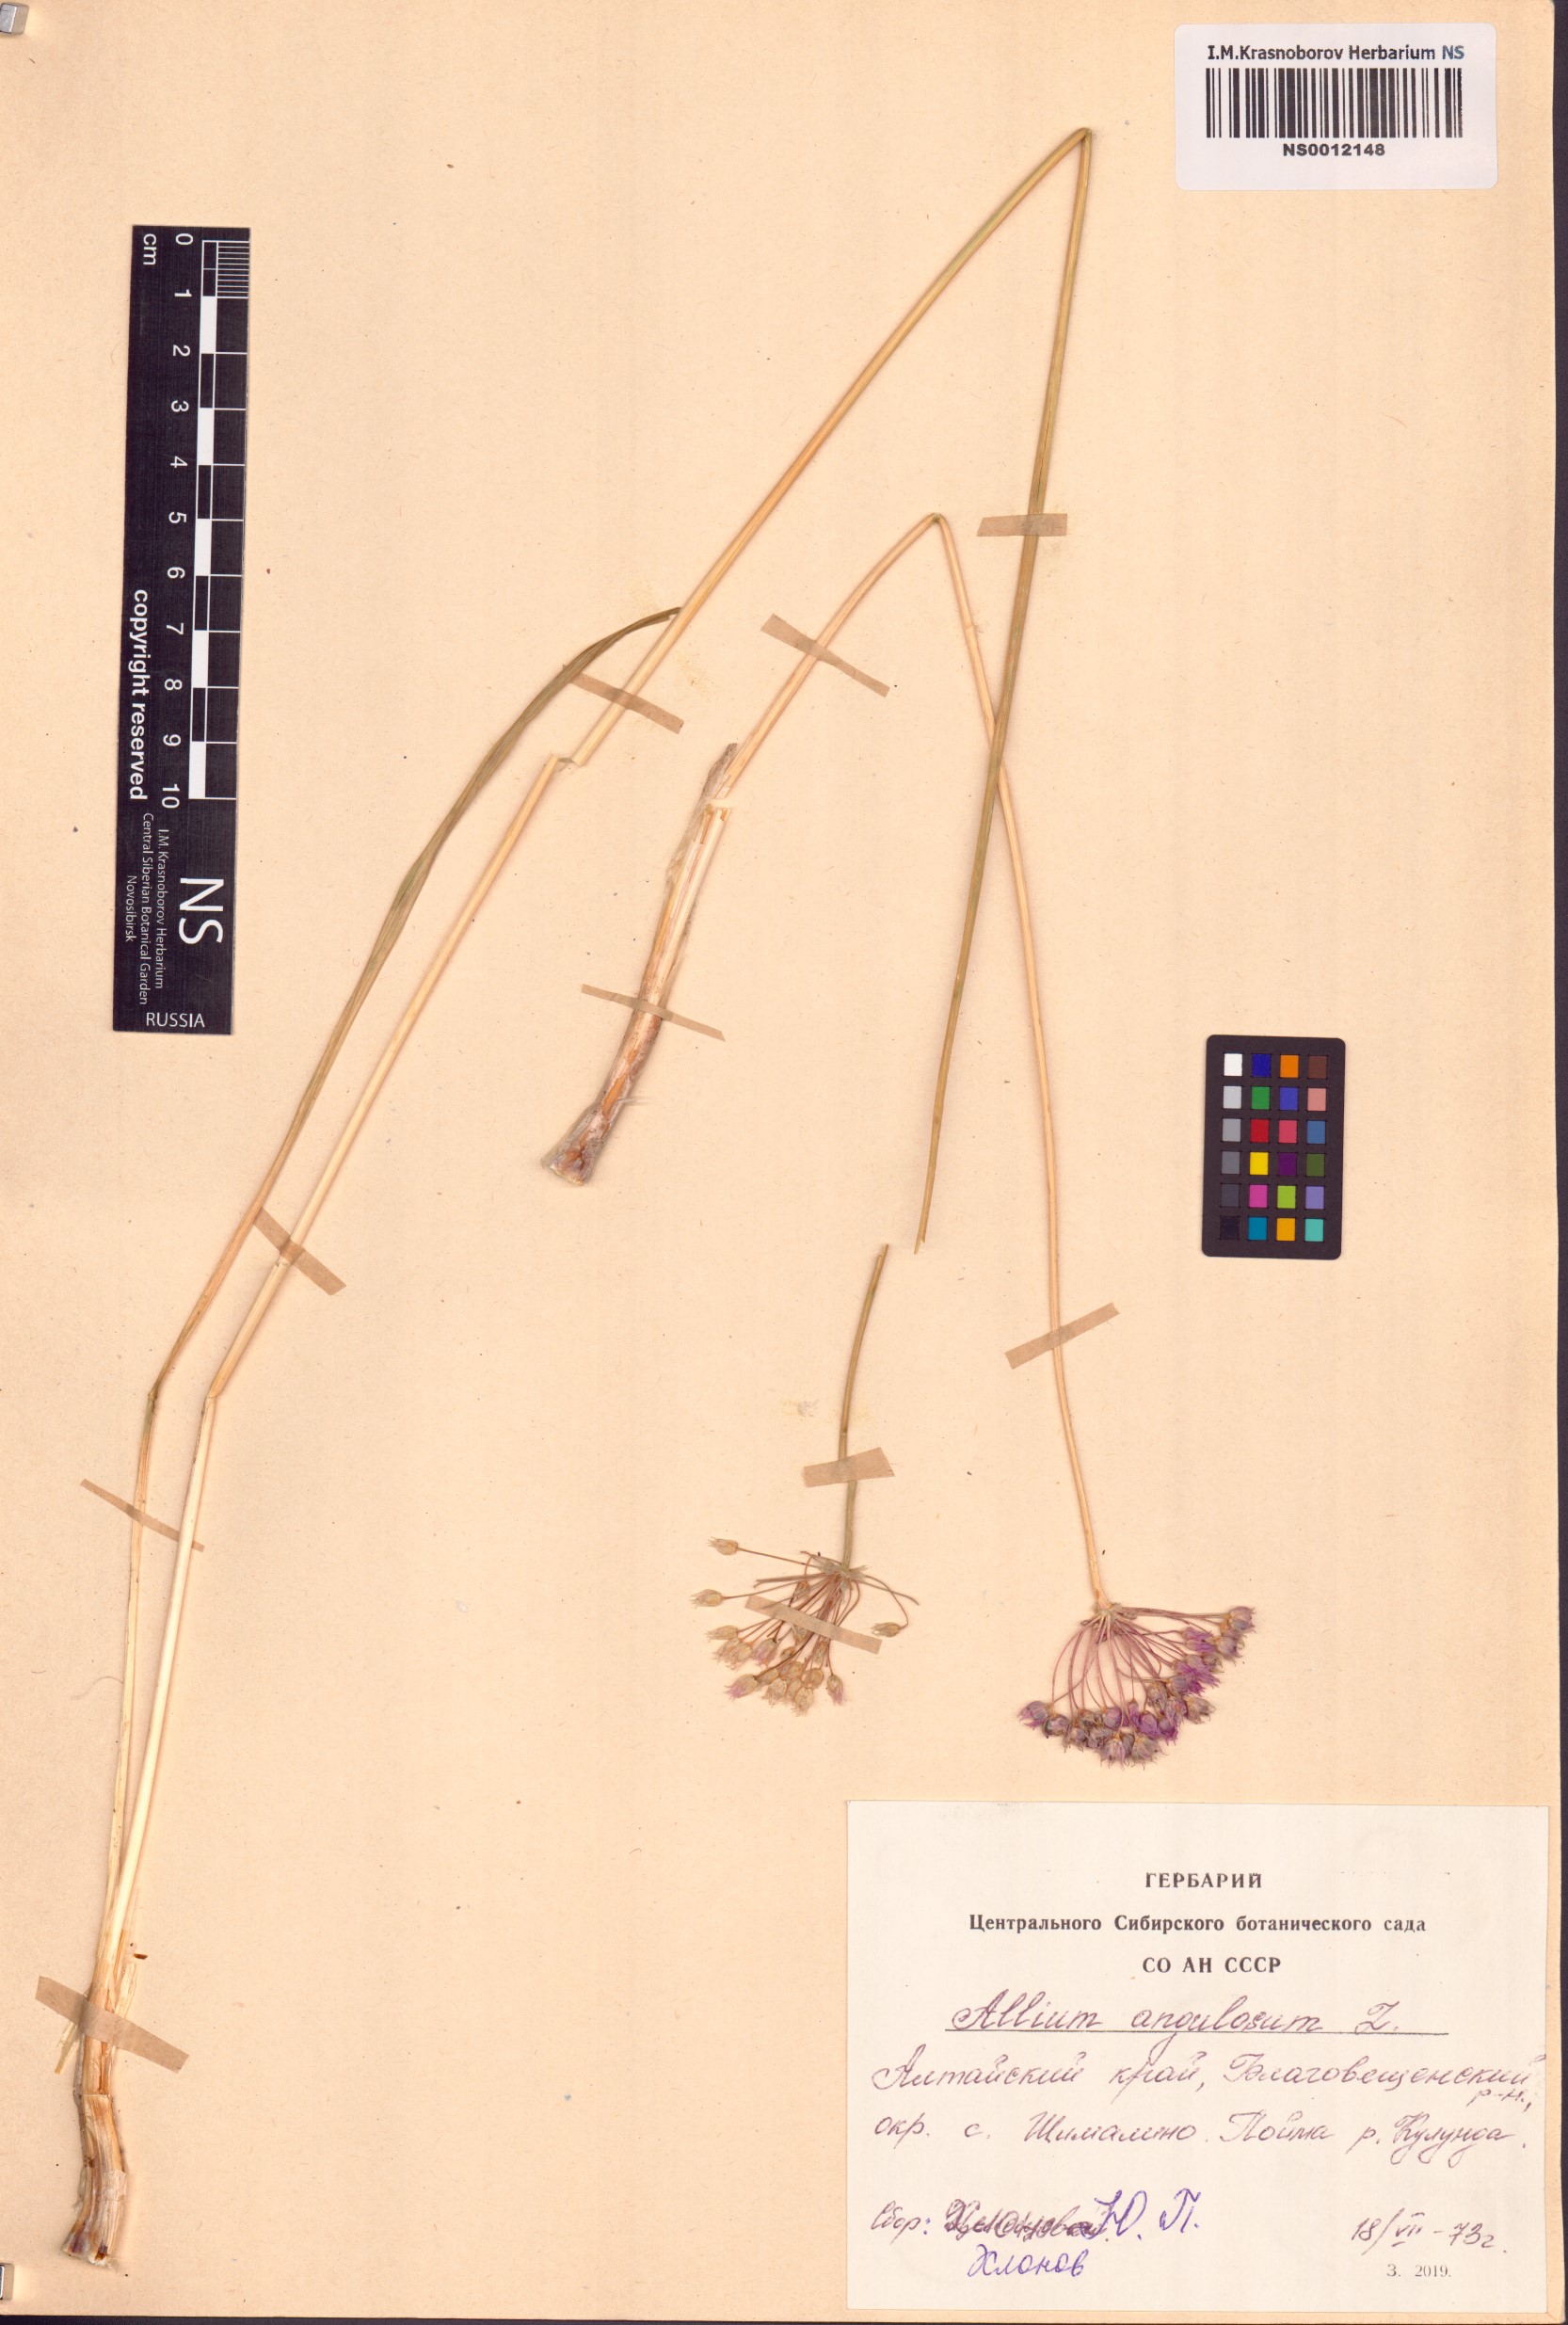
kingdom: Plantae
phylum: Tracheophyta
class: Liliopsida
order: Asparagales
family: Amaryllidaceae
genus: Allium
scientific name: Allium angulosum
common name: Mouse garlic
